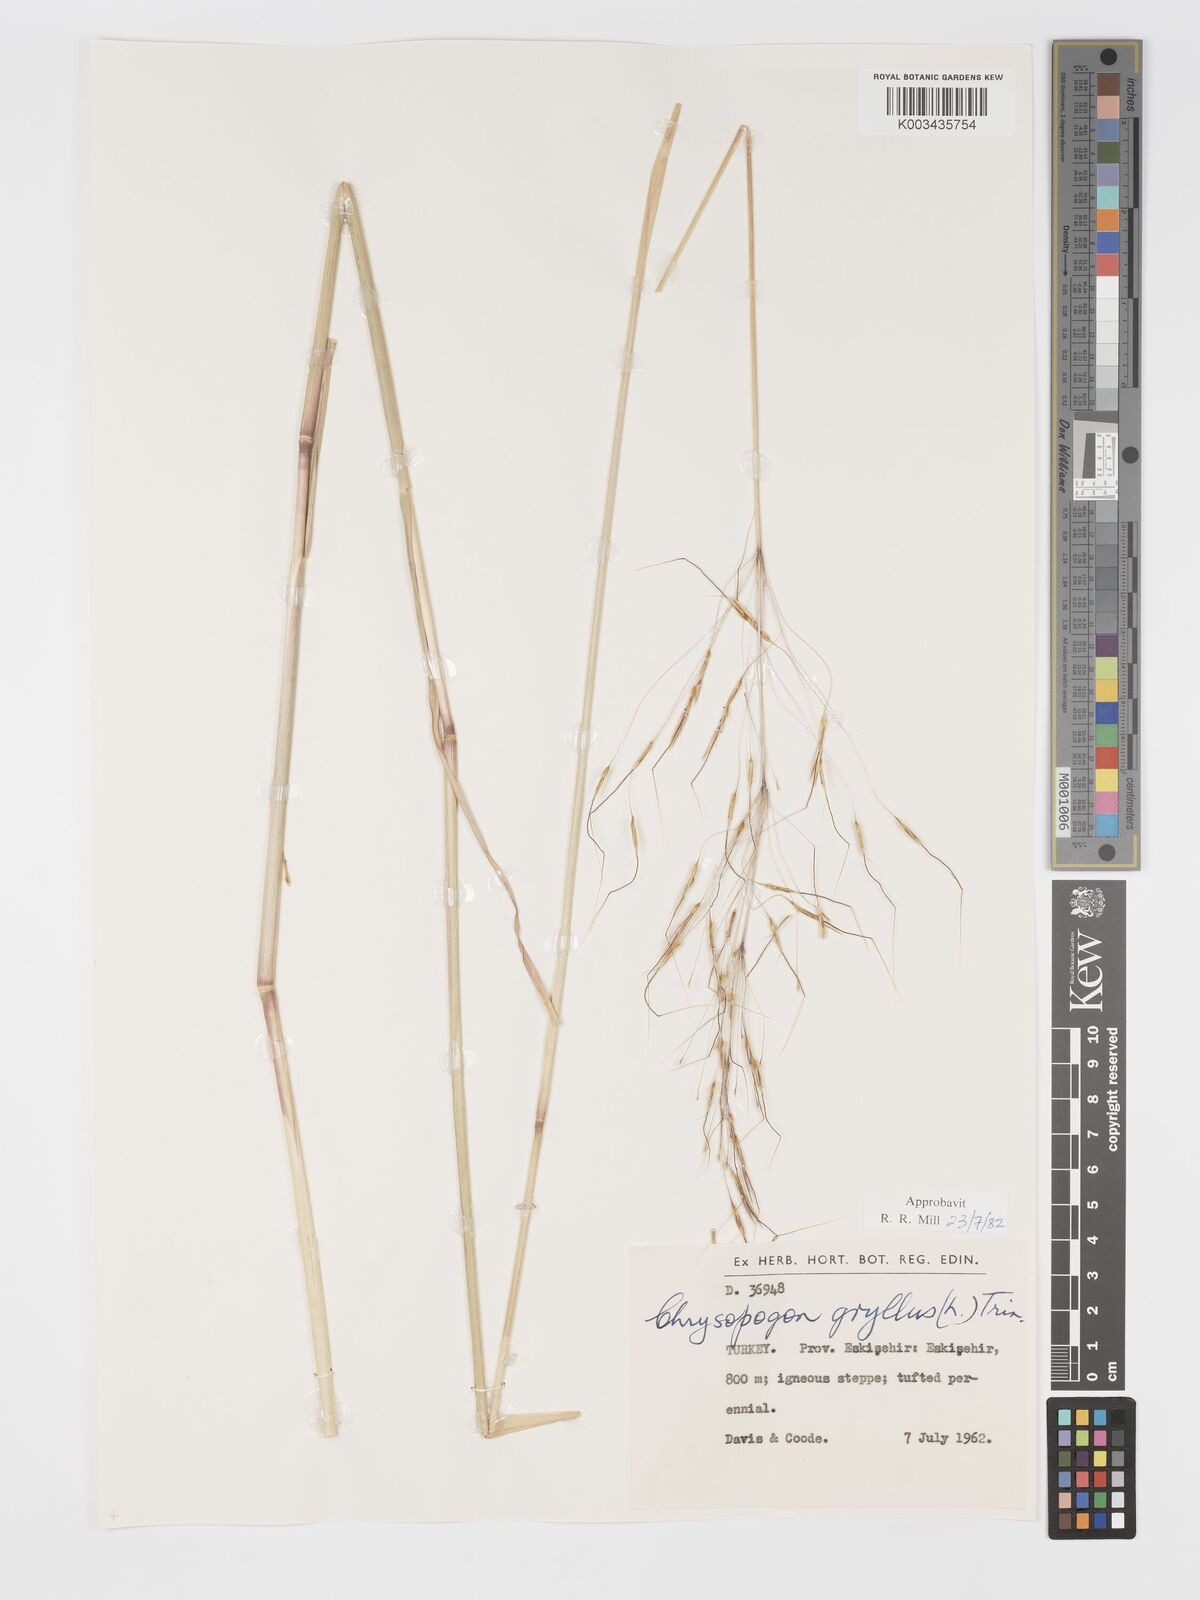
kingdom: Plantae
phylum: Tracheophyta
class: Liliopsida
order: Poales
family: Poaceae
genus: Chrysopogon
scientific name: Chrysopogon gryllus
